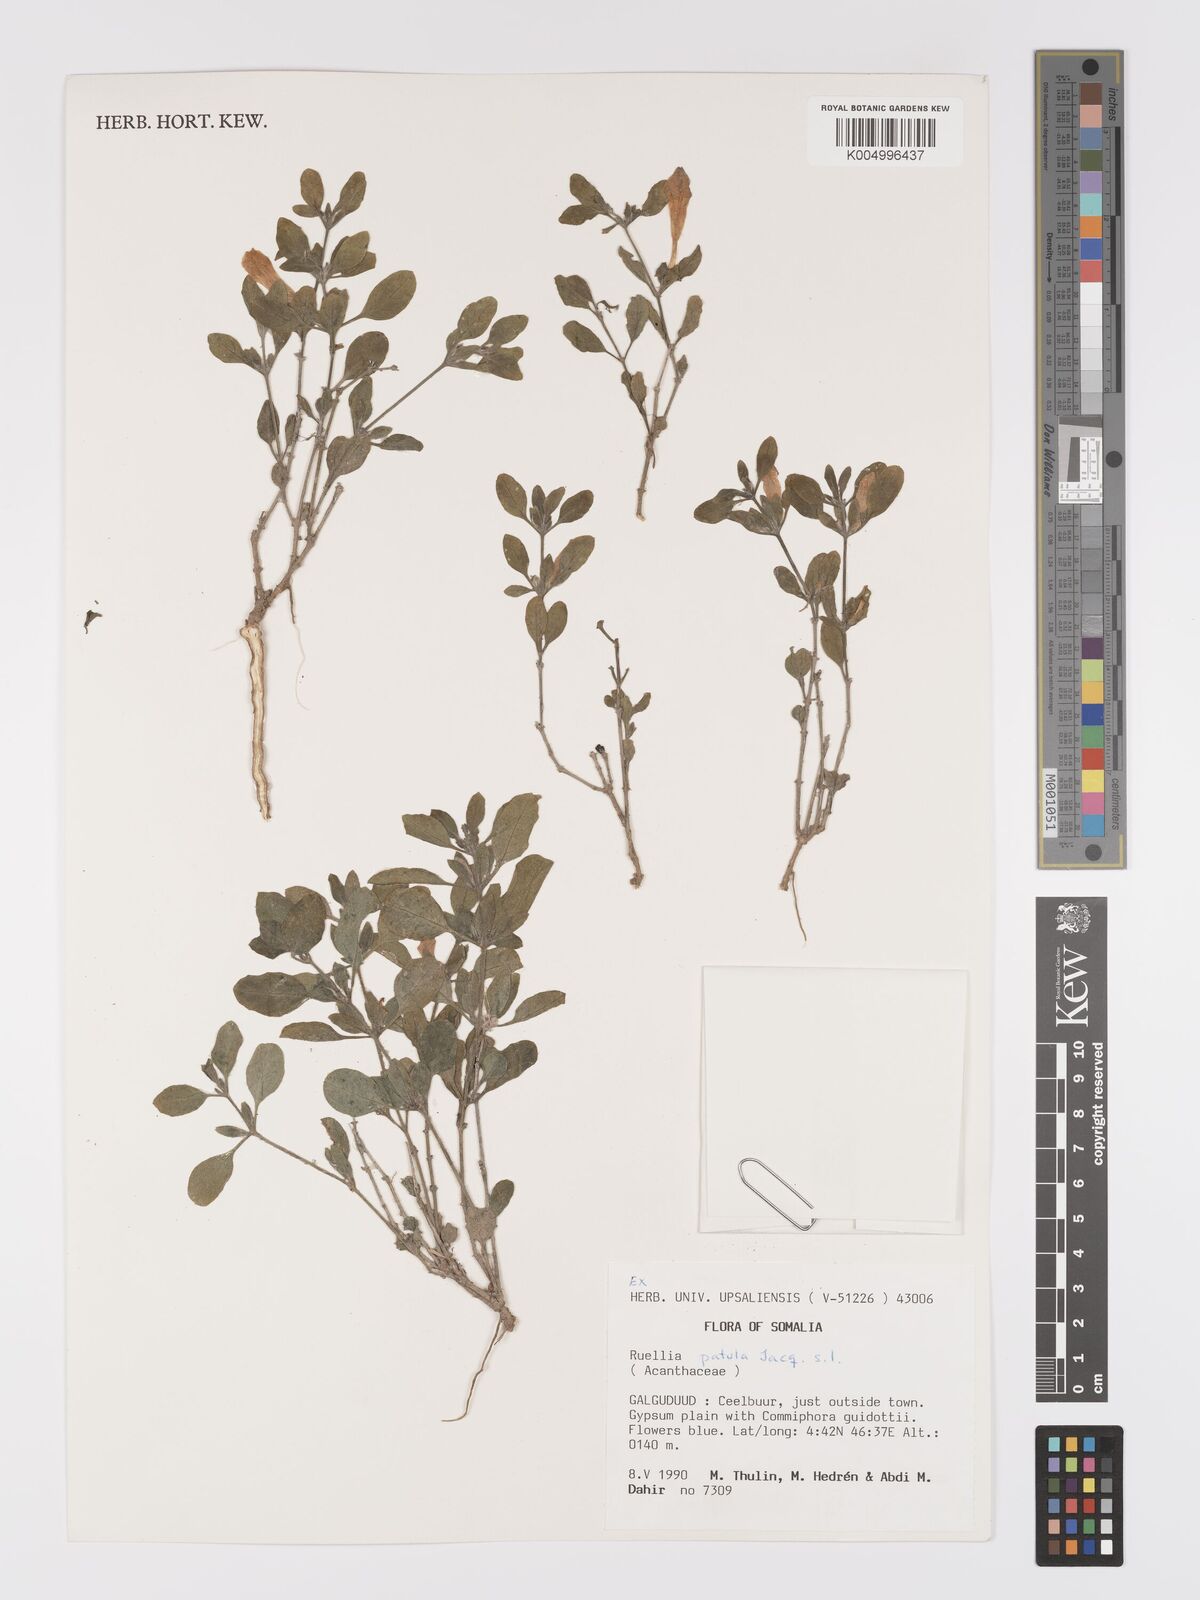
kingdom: Plantae
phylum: Tracheophyta
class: Magnoliopsida
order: Lamiales
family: Acanthaceae
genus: Ruellia
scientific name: Ruellia patula
